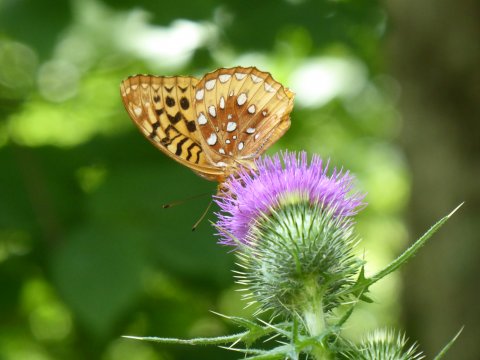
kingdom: Animalia
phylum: Arthropoda
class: Insecta
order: Lepidoptera
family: Nymphalidae
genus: Speyeria
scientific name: Speyeria cybele
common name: Great Spangled Fritillary
